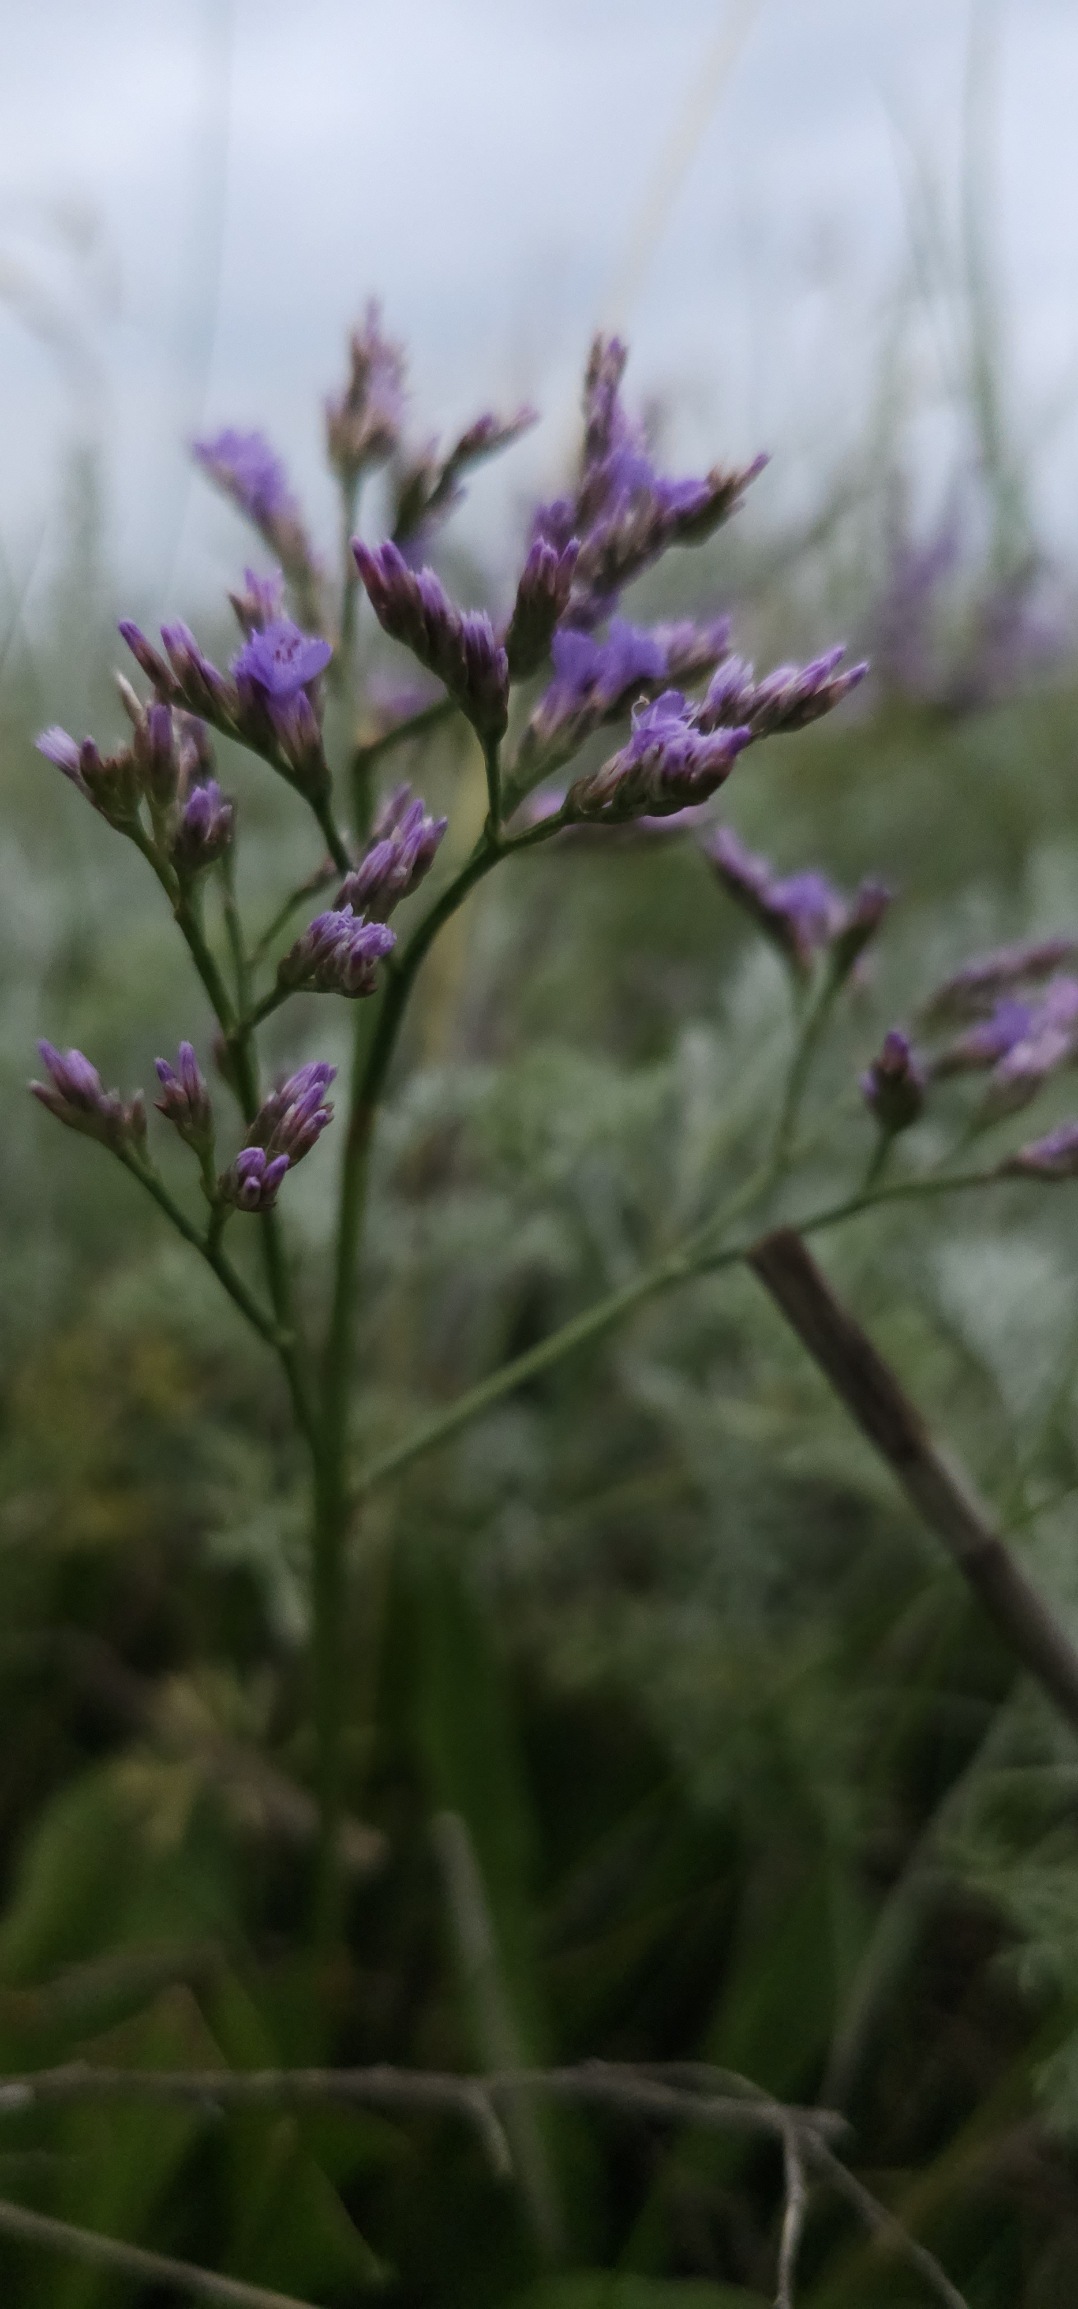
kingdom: Plantae
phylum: Tracheophyta
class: Magnoliopsida
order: Caryophyllales
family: Plumbaginaceae
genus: Limonium
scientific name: Limonium vulgare
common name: Tætblomstret hindebæger
